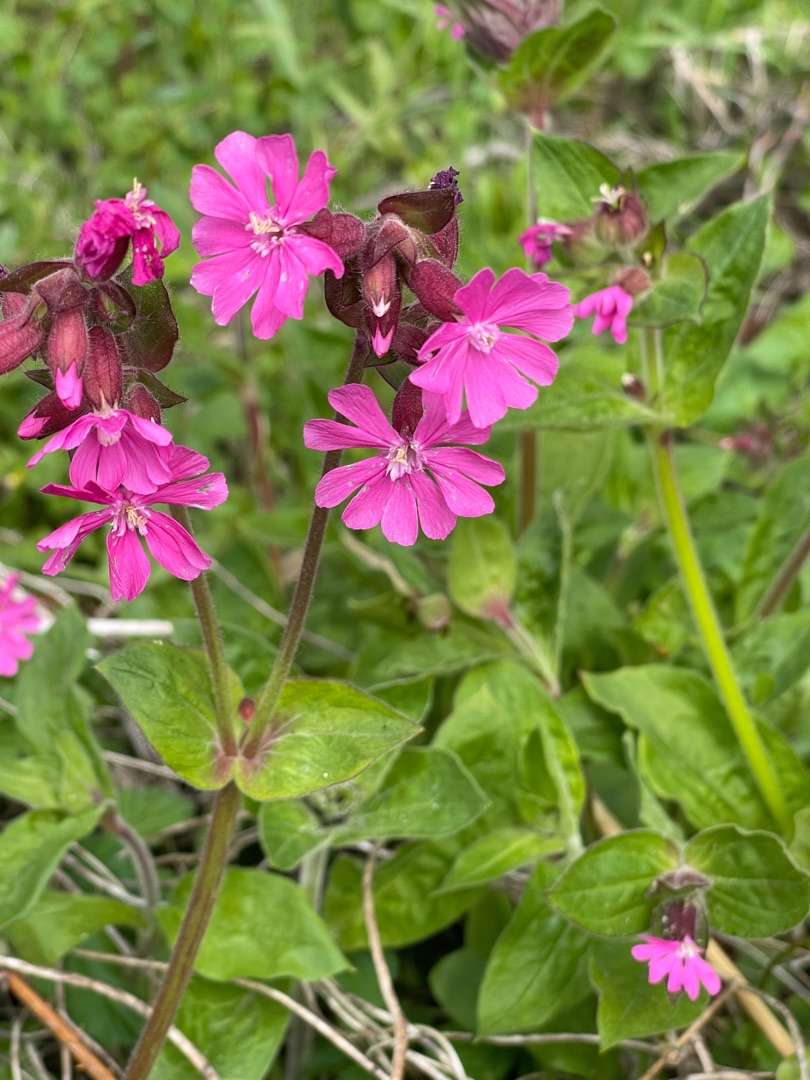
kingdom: Plantae
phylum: Tracheophyta
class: Magnoliopsida
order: Caryophyllales
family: Caryophyllaceae
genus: Silene
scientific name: Silene dioica
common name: Dagpragtstjerne
